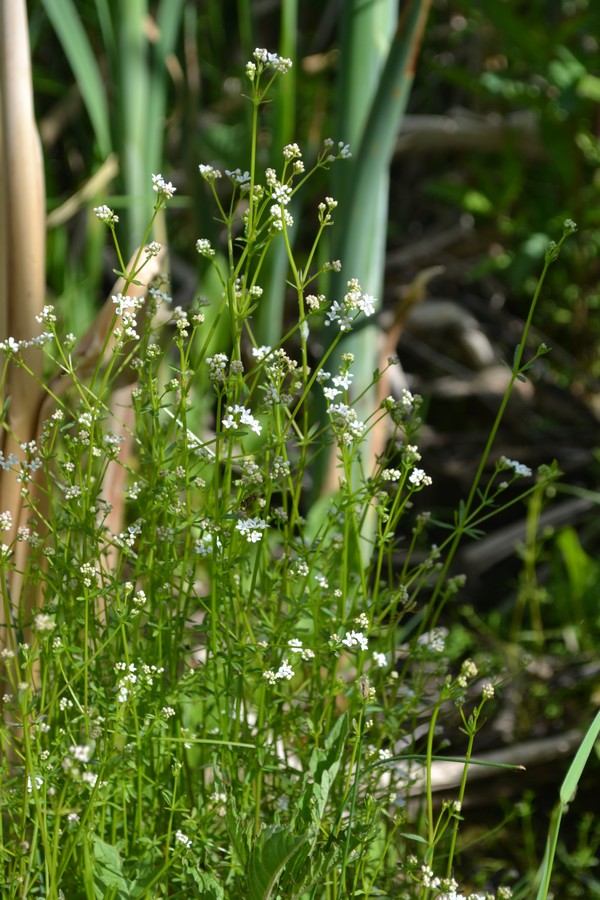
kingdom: Plantae
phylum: Tracheophyta
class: Magnoliopsida
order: Gentianales
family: Rubiaceae
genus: Galium
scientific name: Galium rivale
